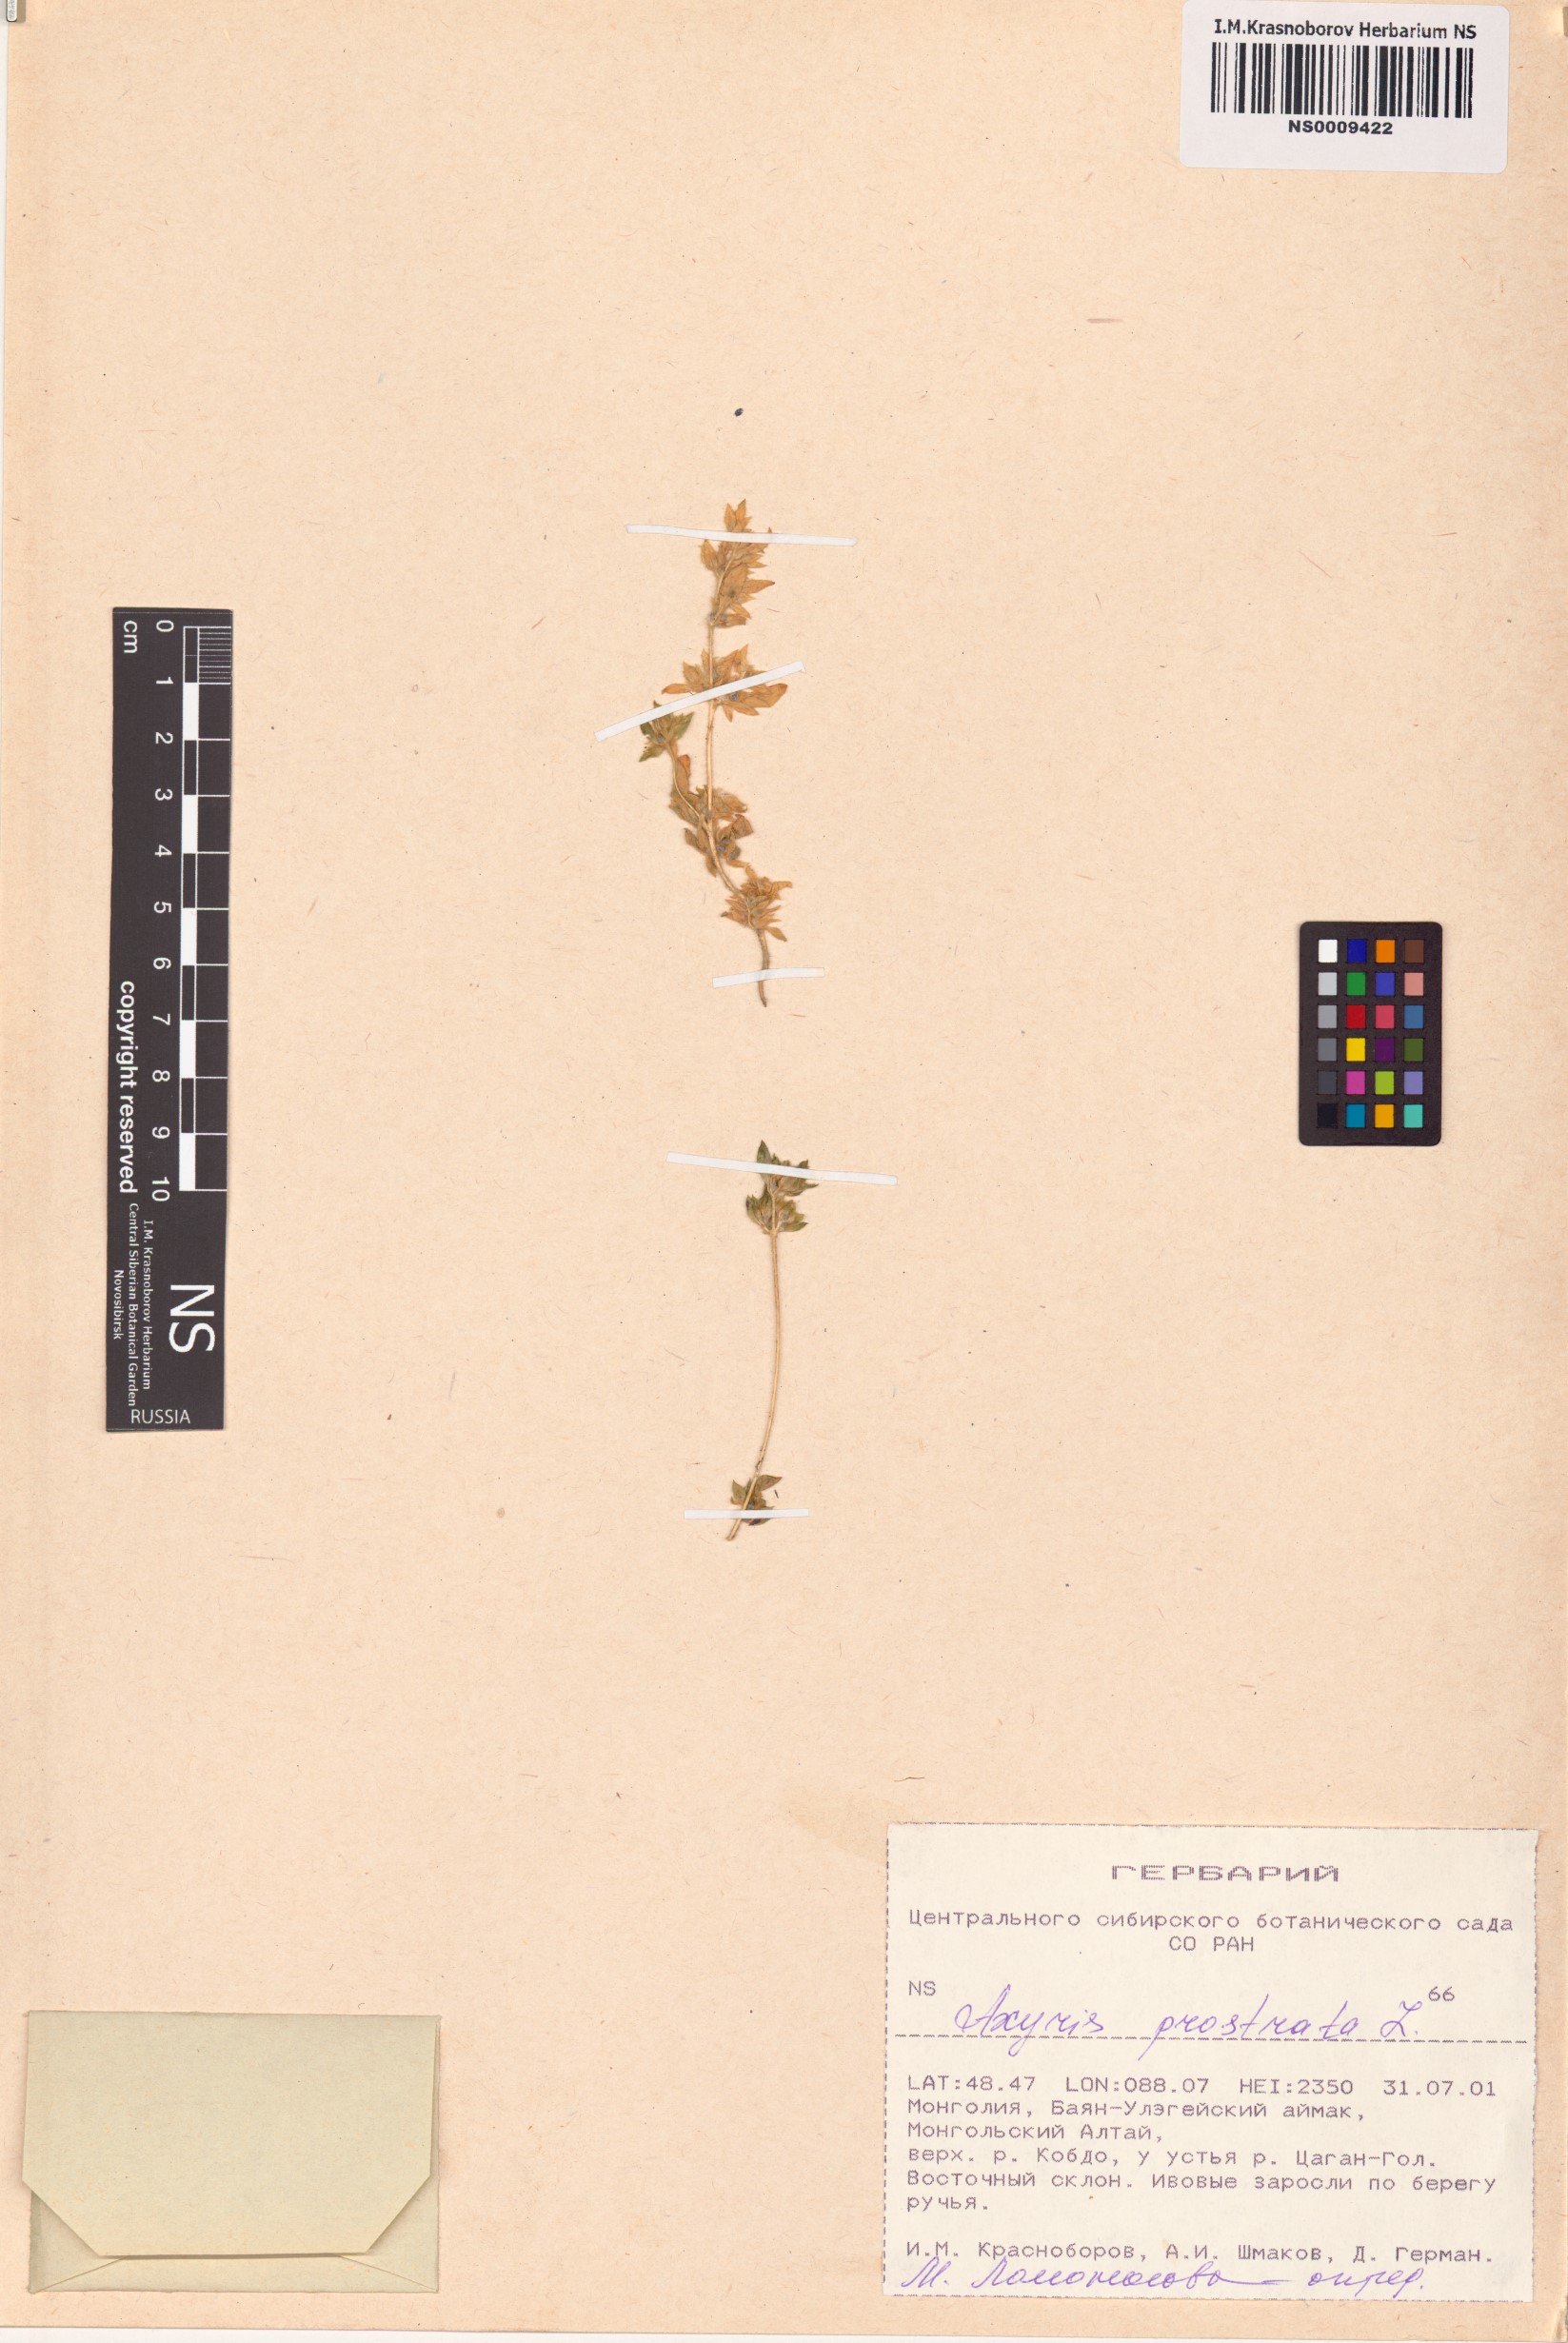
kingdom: Plantae
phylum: Tracheophyta
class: Magnoliopsida
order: Caryophyllales
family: Amaranthaceae
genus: Axyris
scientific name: Axyris prostrata
